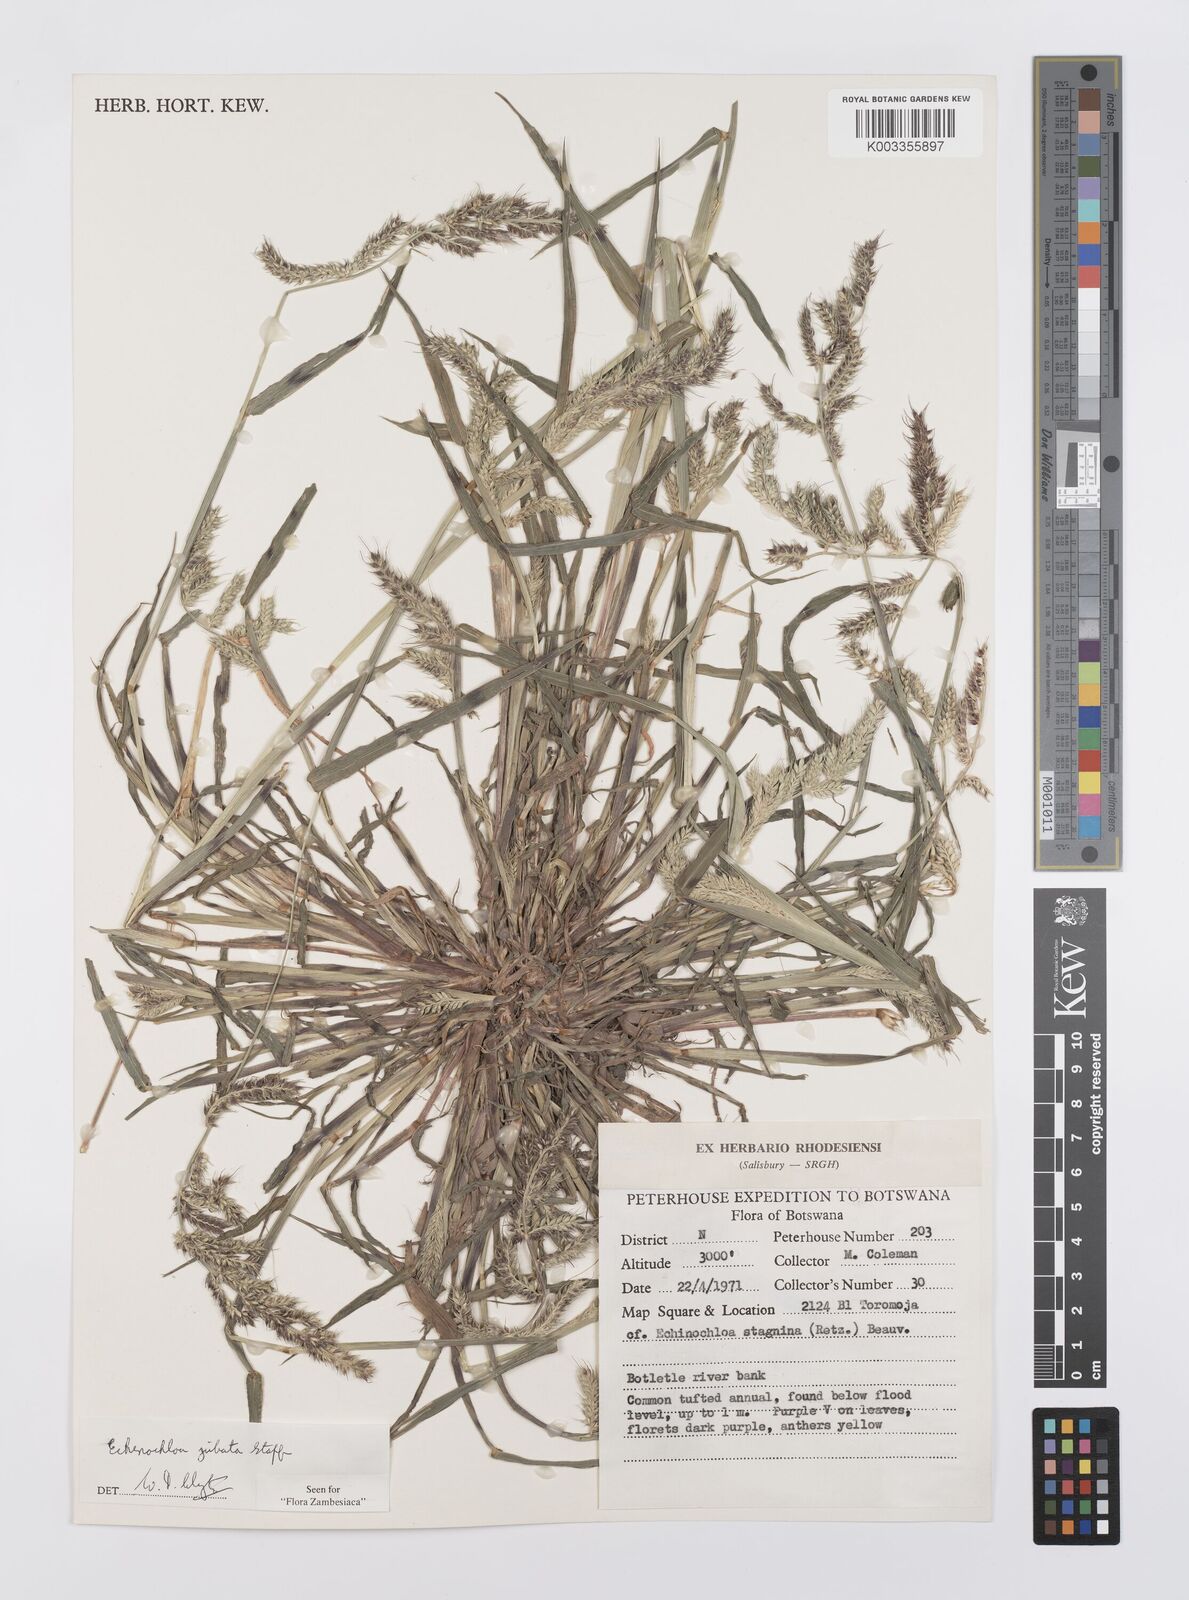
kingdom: Plantae
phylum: Tracheophyta
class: Liliopsida
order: Poales
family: Poaceae
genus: Echinochloa
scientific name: Echinochloa jubata
